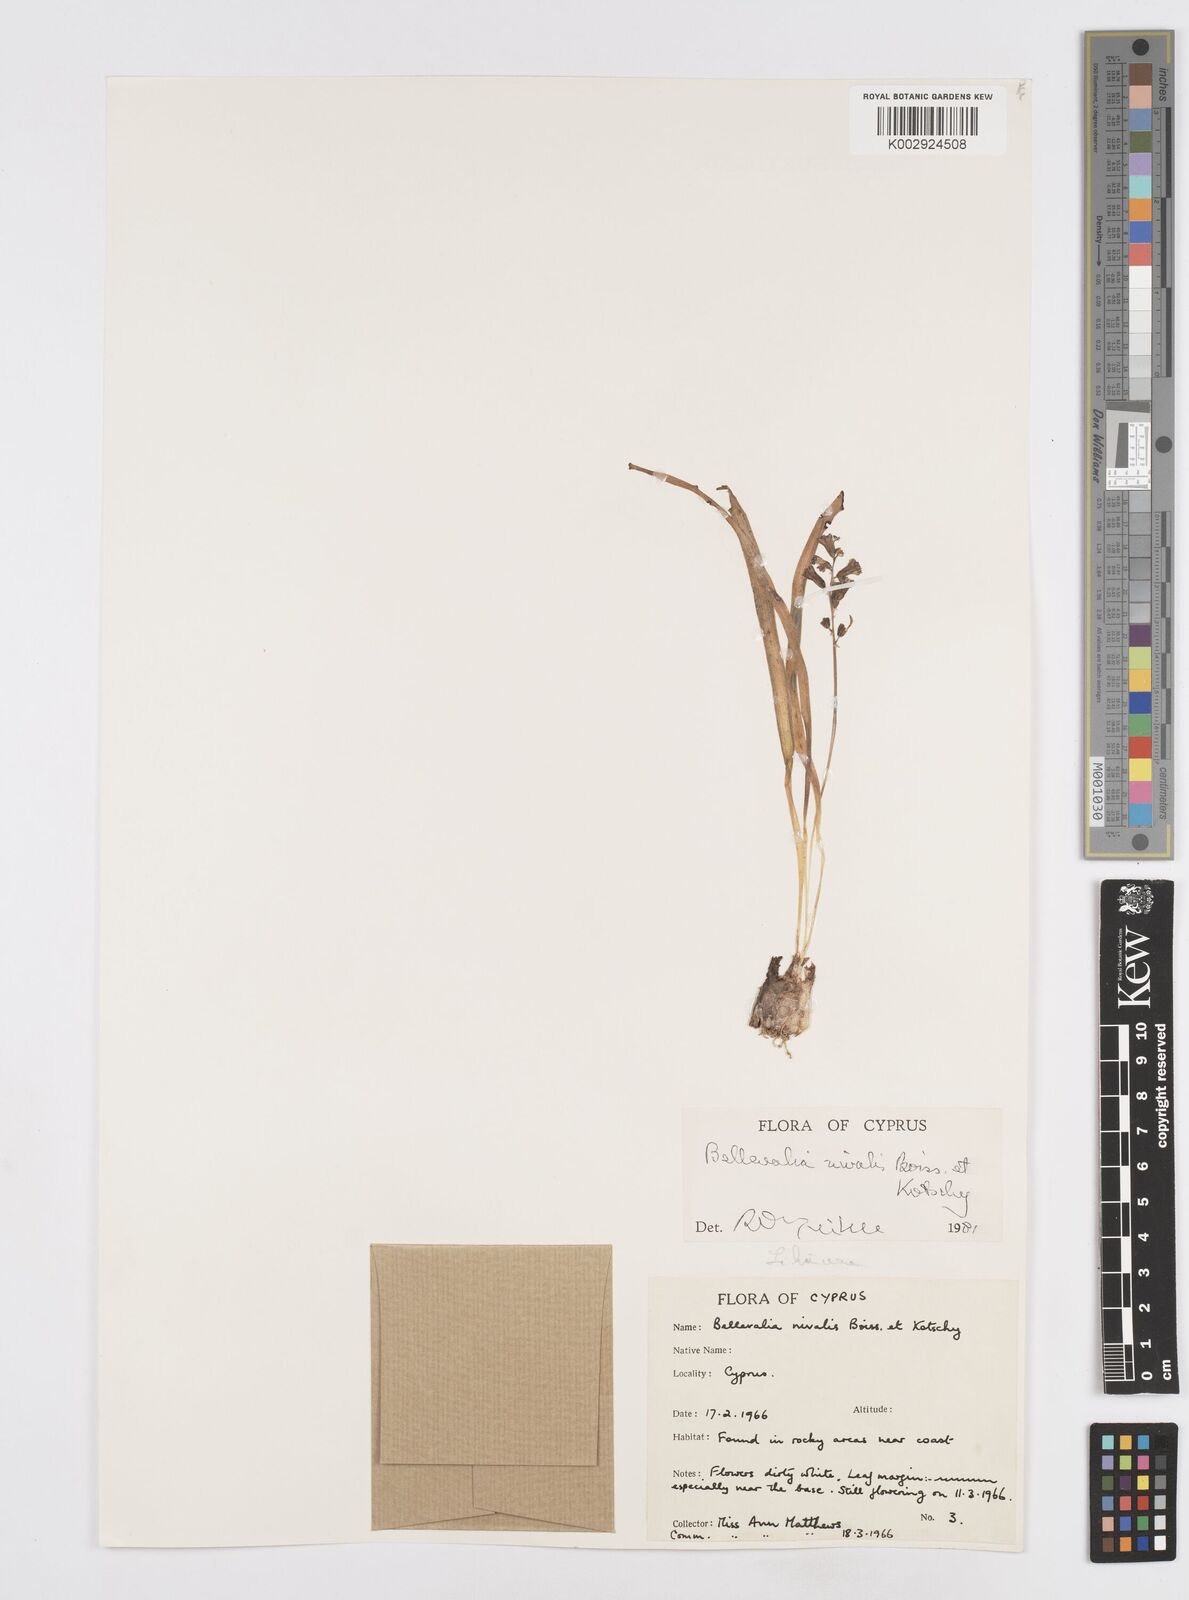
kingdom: Plantae
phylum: Tracheophyta
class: Liliopsida
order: Asparagales
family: Asparagaceae
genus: Bellevalia
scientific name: Bellevalia nivalis
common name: Snow bellevalia
